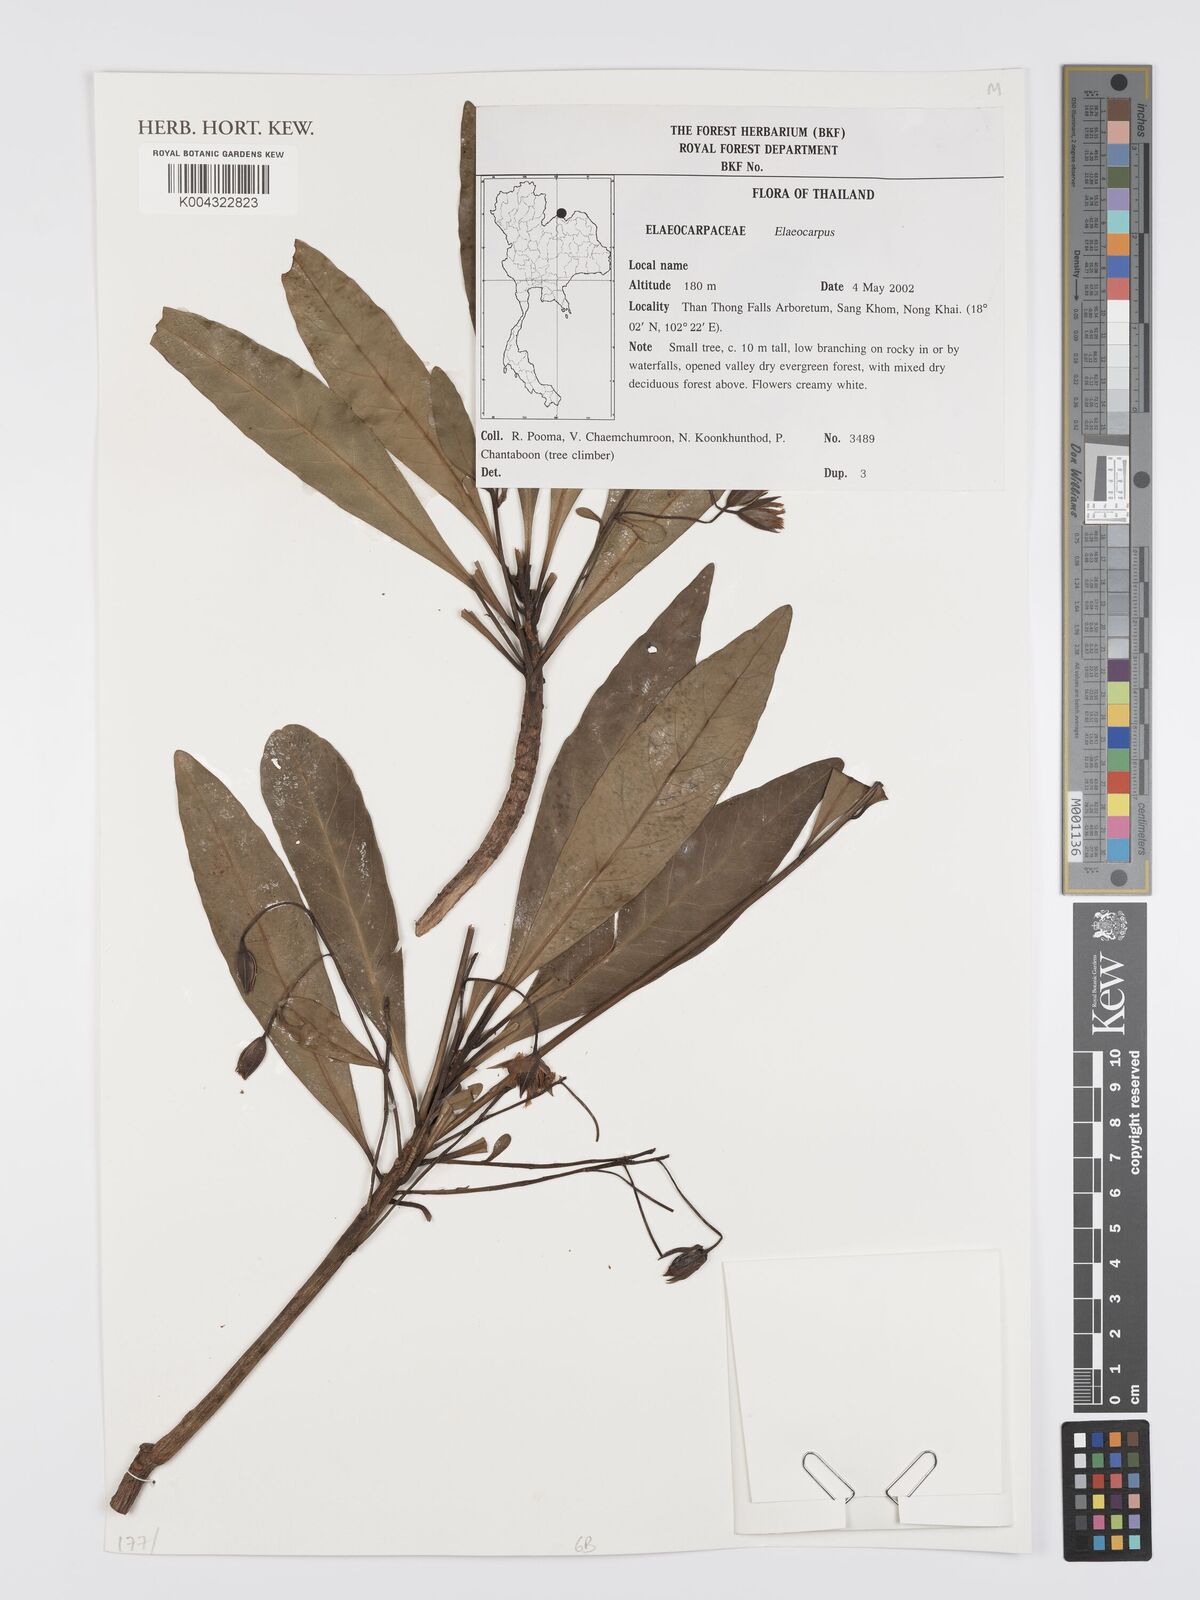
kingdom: Plantae
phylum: Tracheophyta
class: Magnoliopsida
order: Oxalidales
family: Elaeocarpaceae
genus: Elaeocarpus
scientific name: Elaeocarpus
